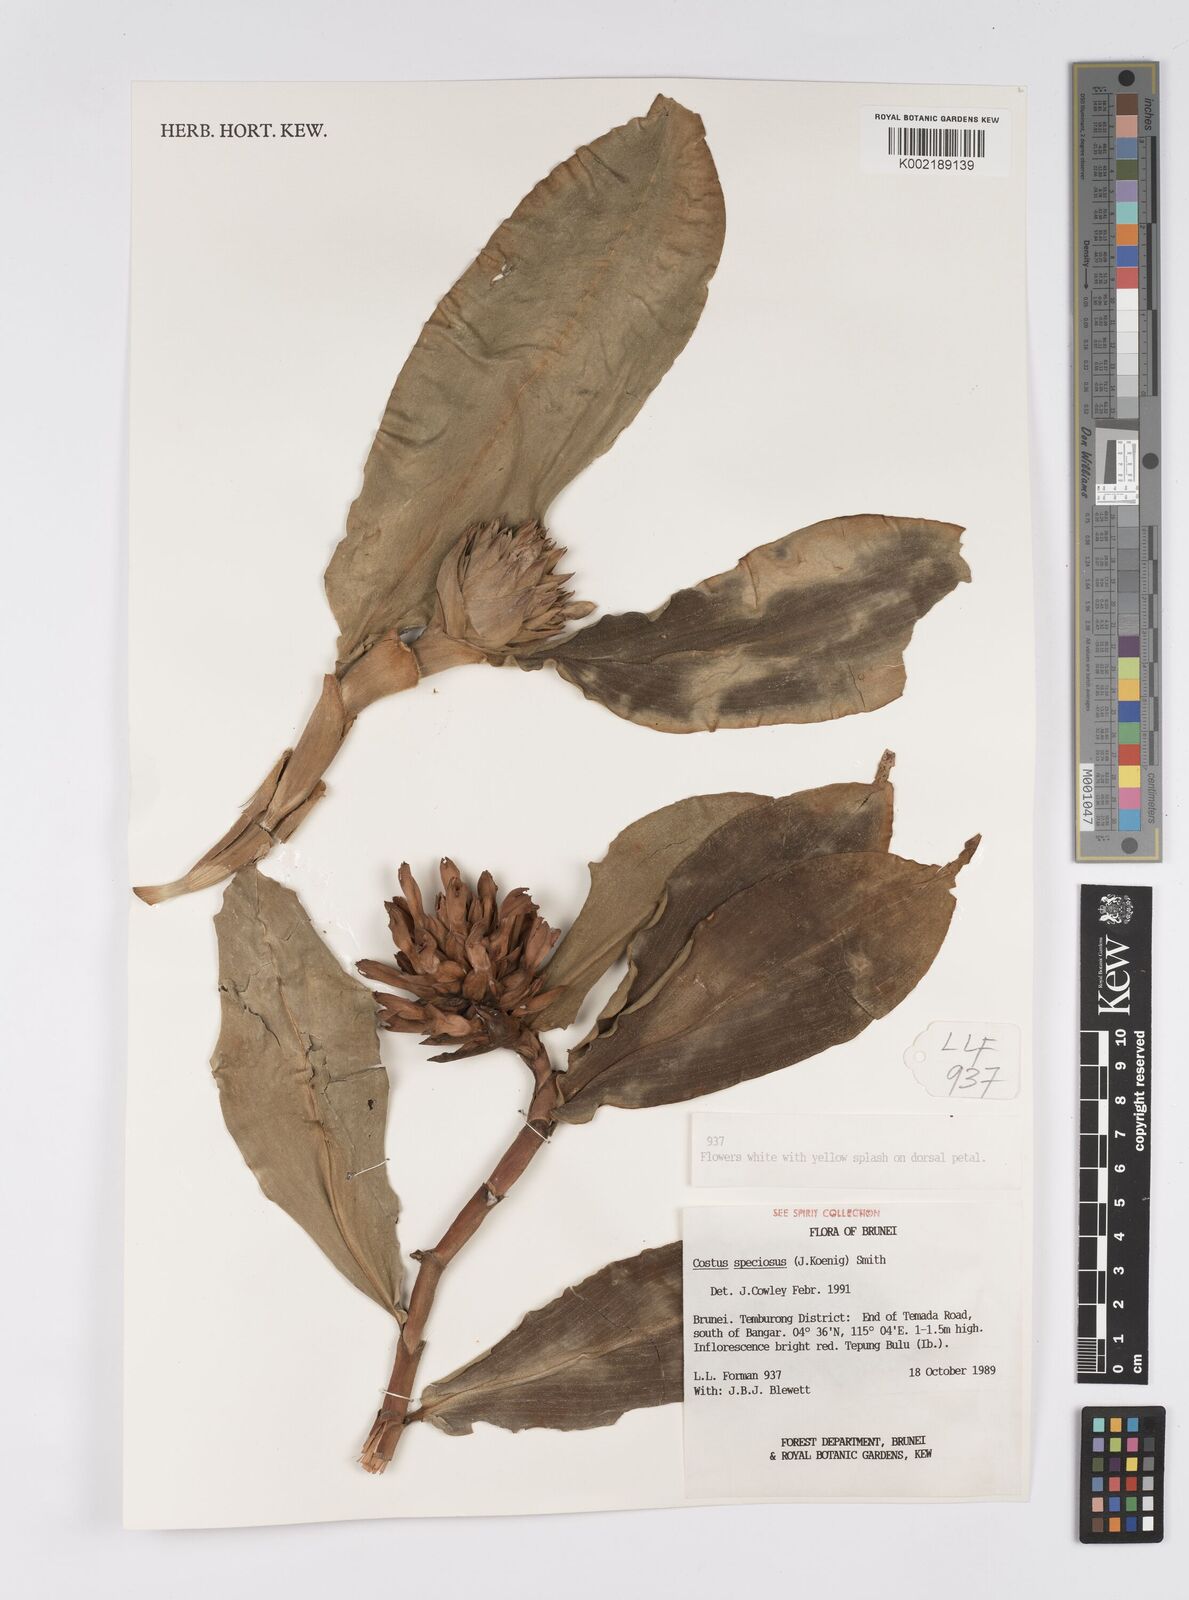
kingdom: Plantae
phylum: Tracheophyta
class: Liliopsida
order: Zingiberales
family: Costaceae
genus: Hellenia
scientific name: Hellenia speciosa
